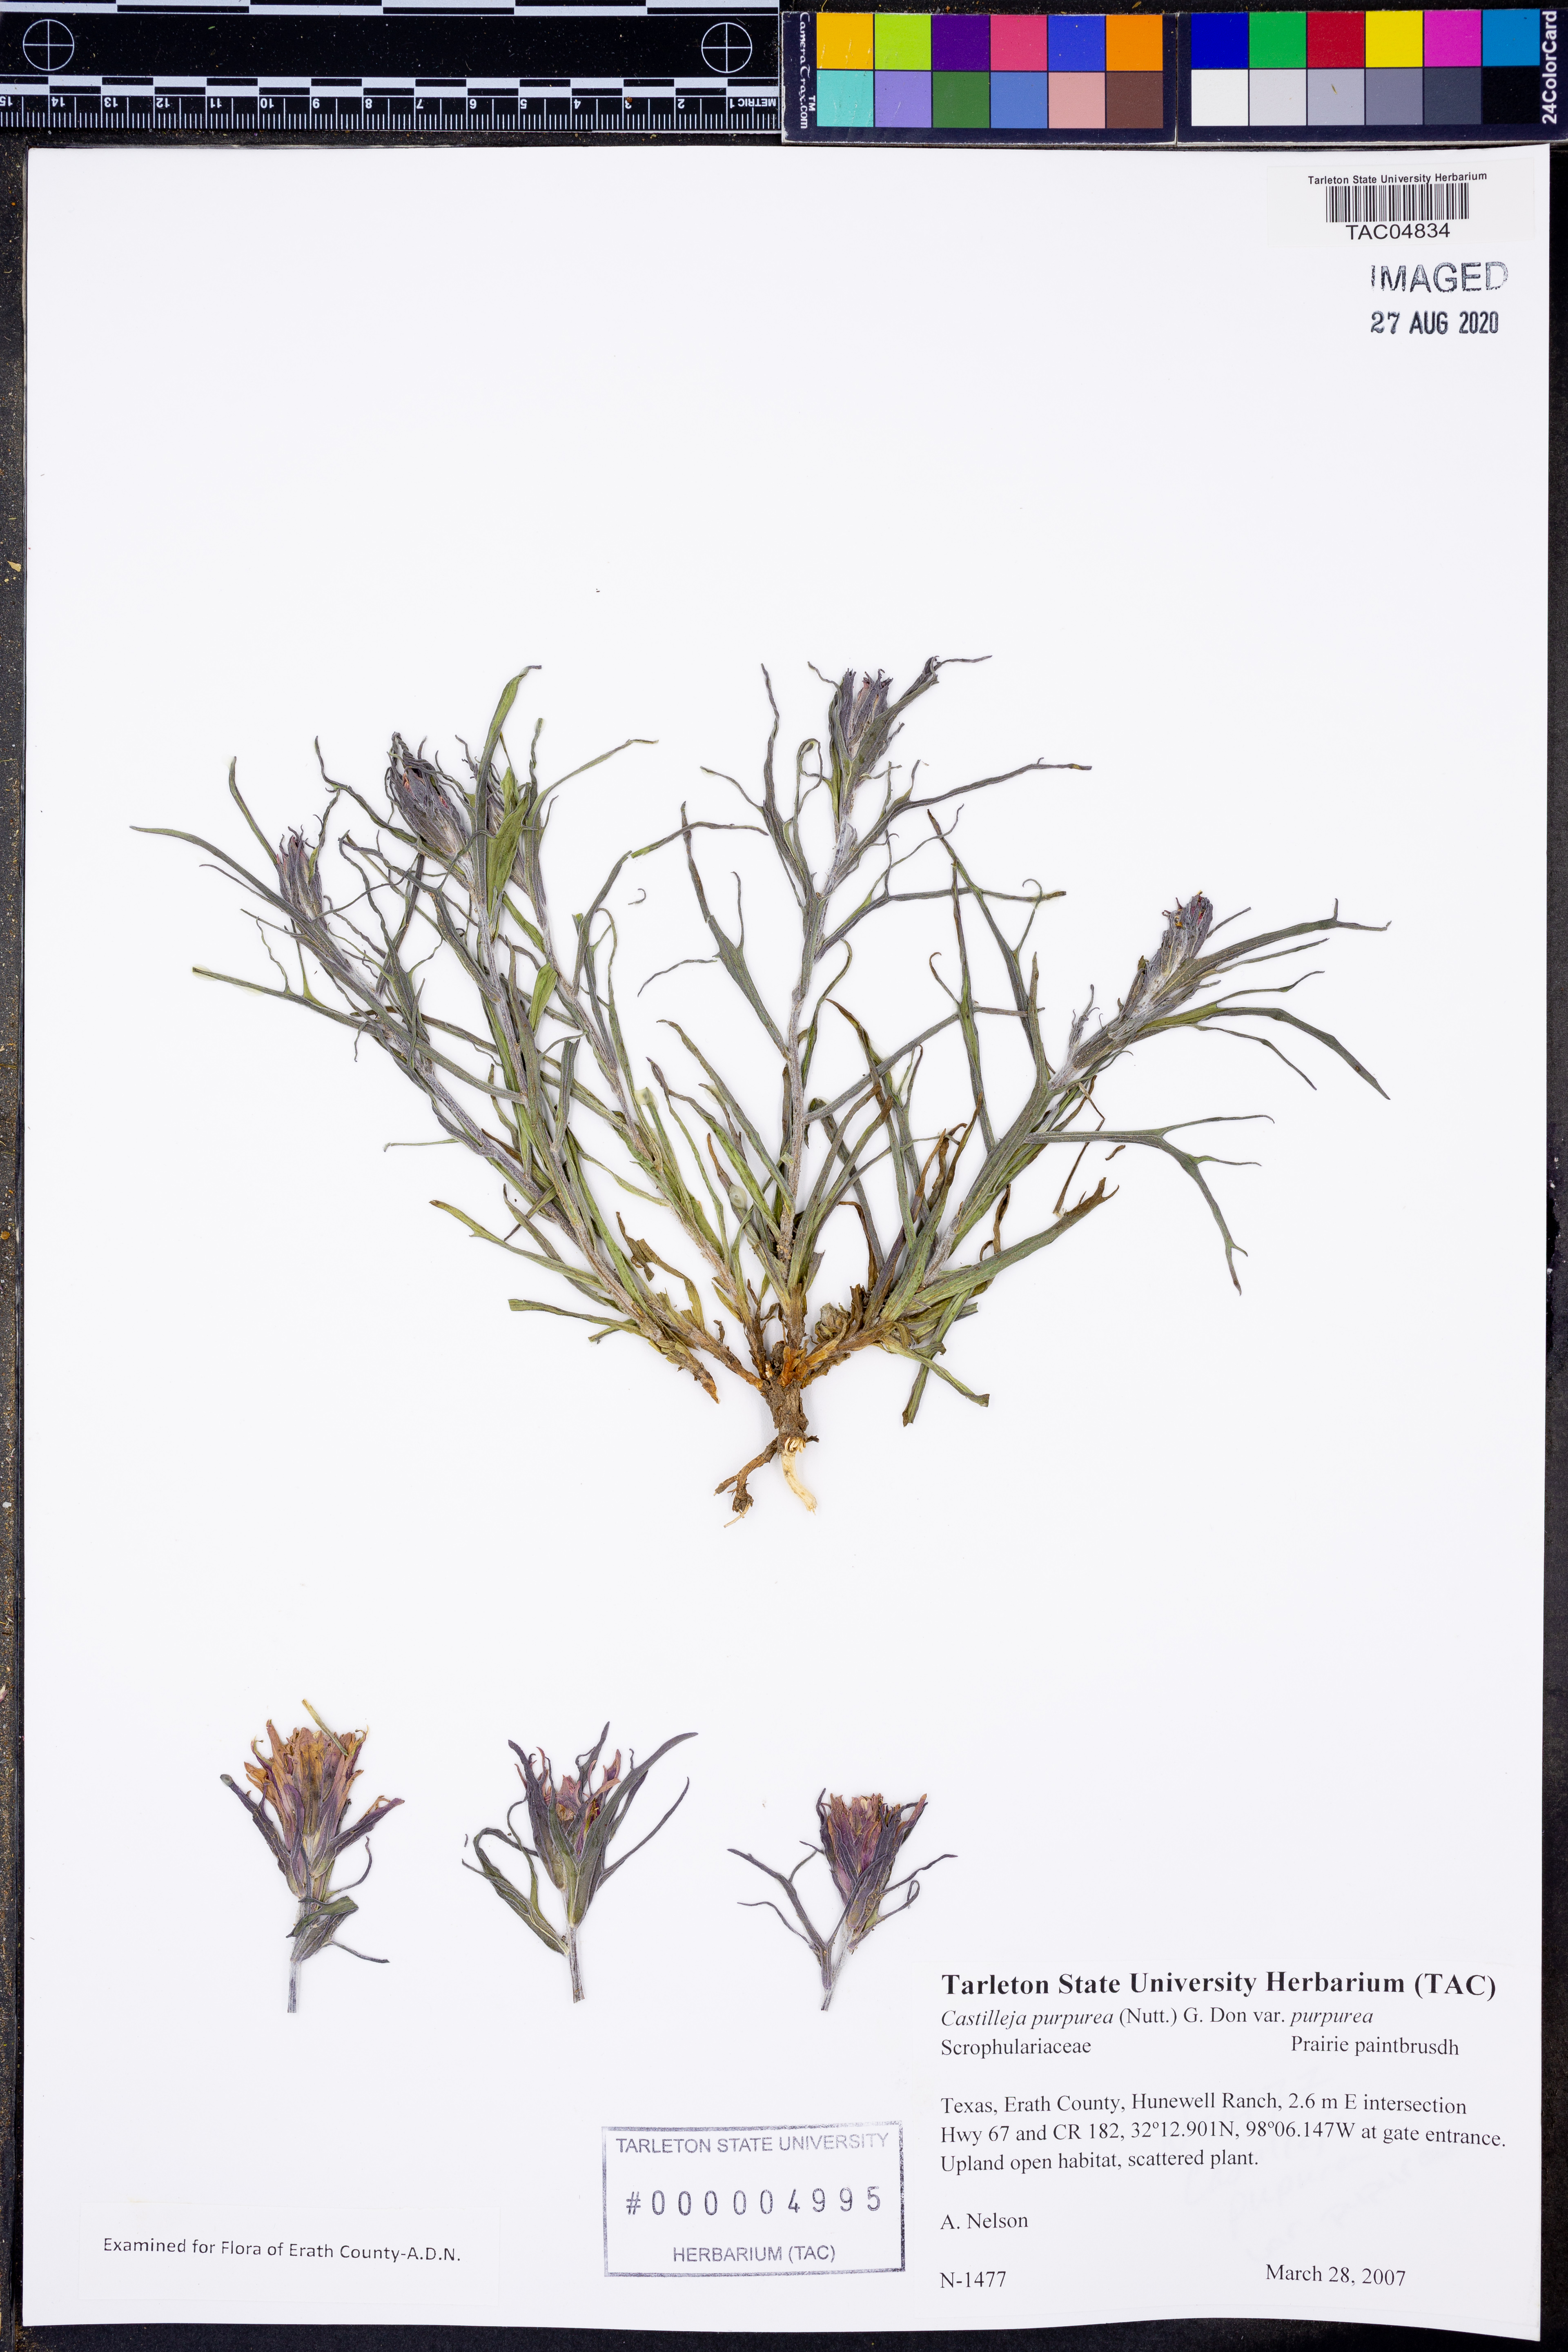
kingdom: Plantae
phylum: Tracheophyta
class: Magnoliopsida
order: Lamiales
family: Orobanchaceae
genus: Castilleja
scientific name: Castilleja purpurea
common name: Plains paintbrush
